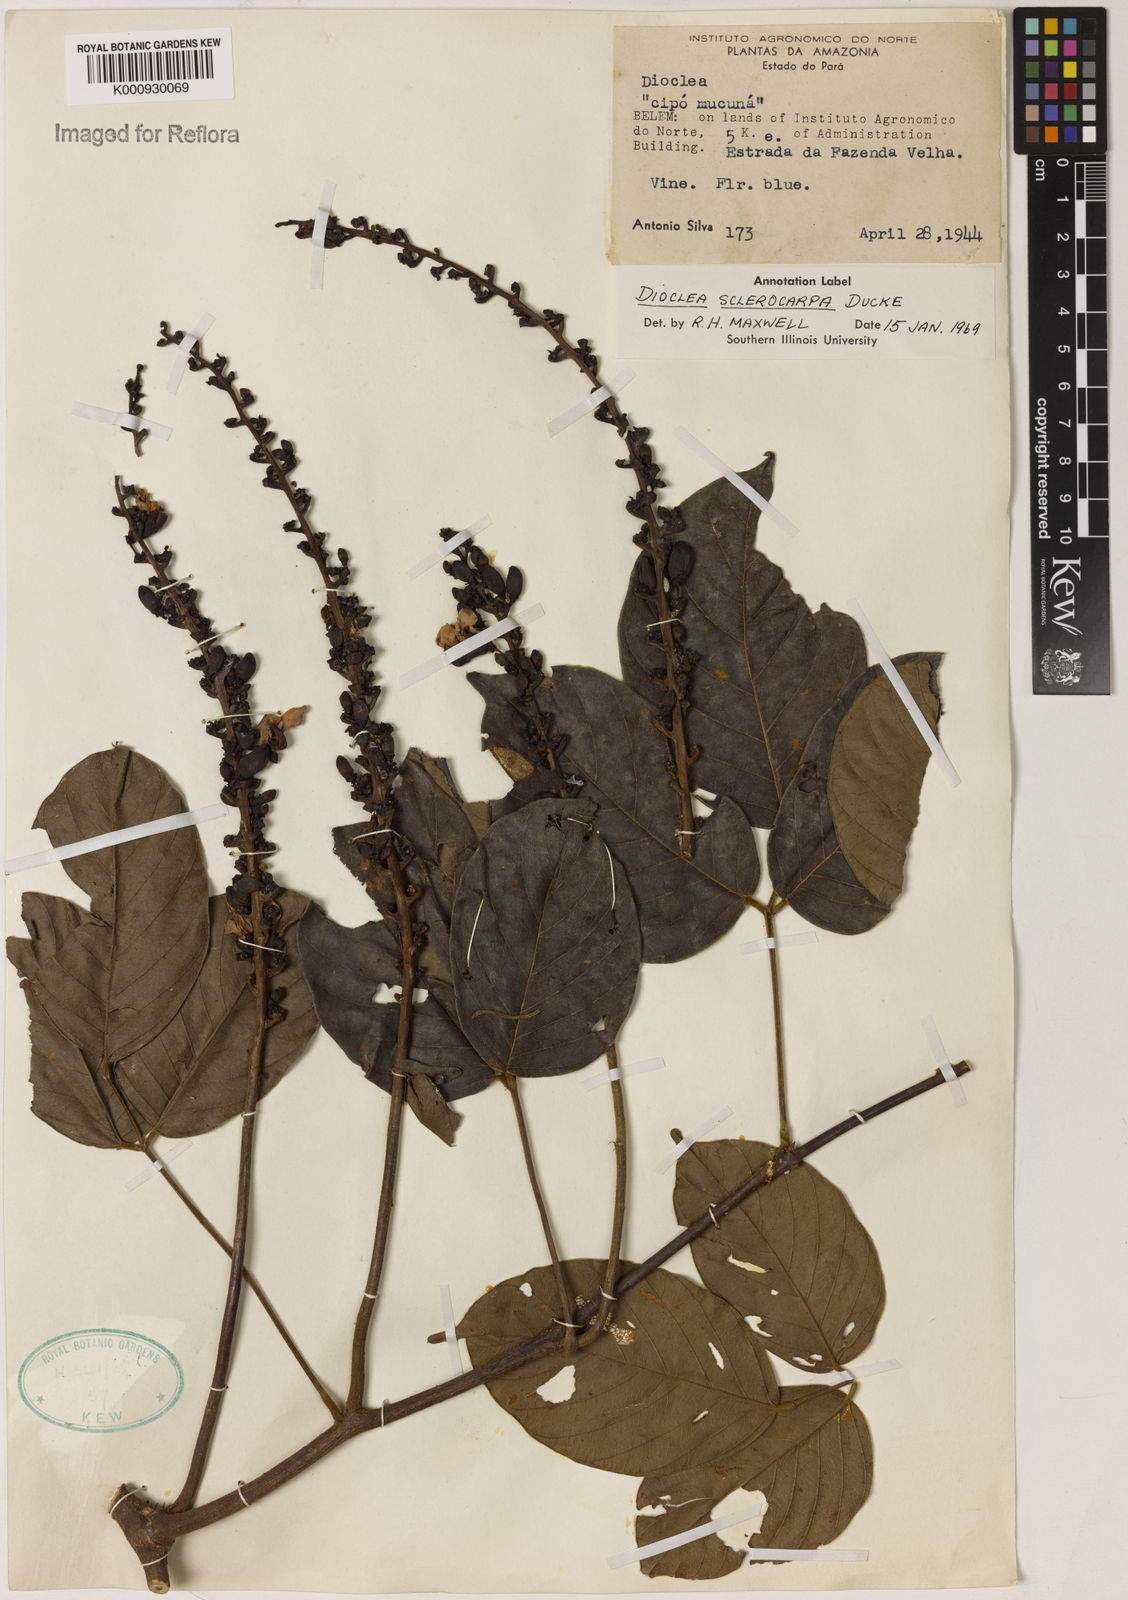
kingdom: Plantae
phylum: Tracheophyta
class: Magnoliopsida
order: Fabales
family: Fabaceae
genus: Macropsychanthus
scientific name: Macropsychanthus sclerocarpus
